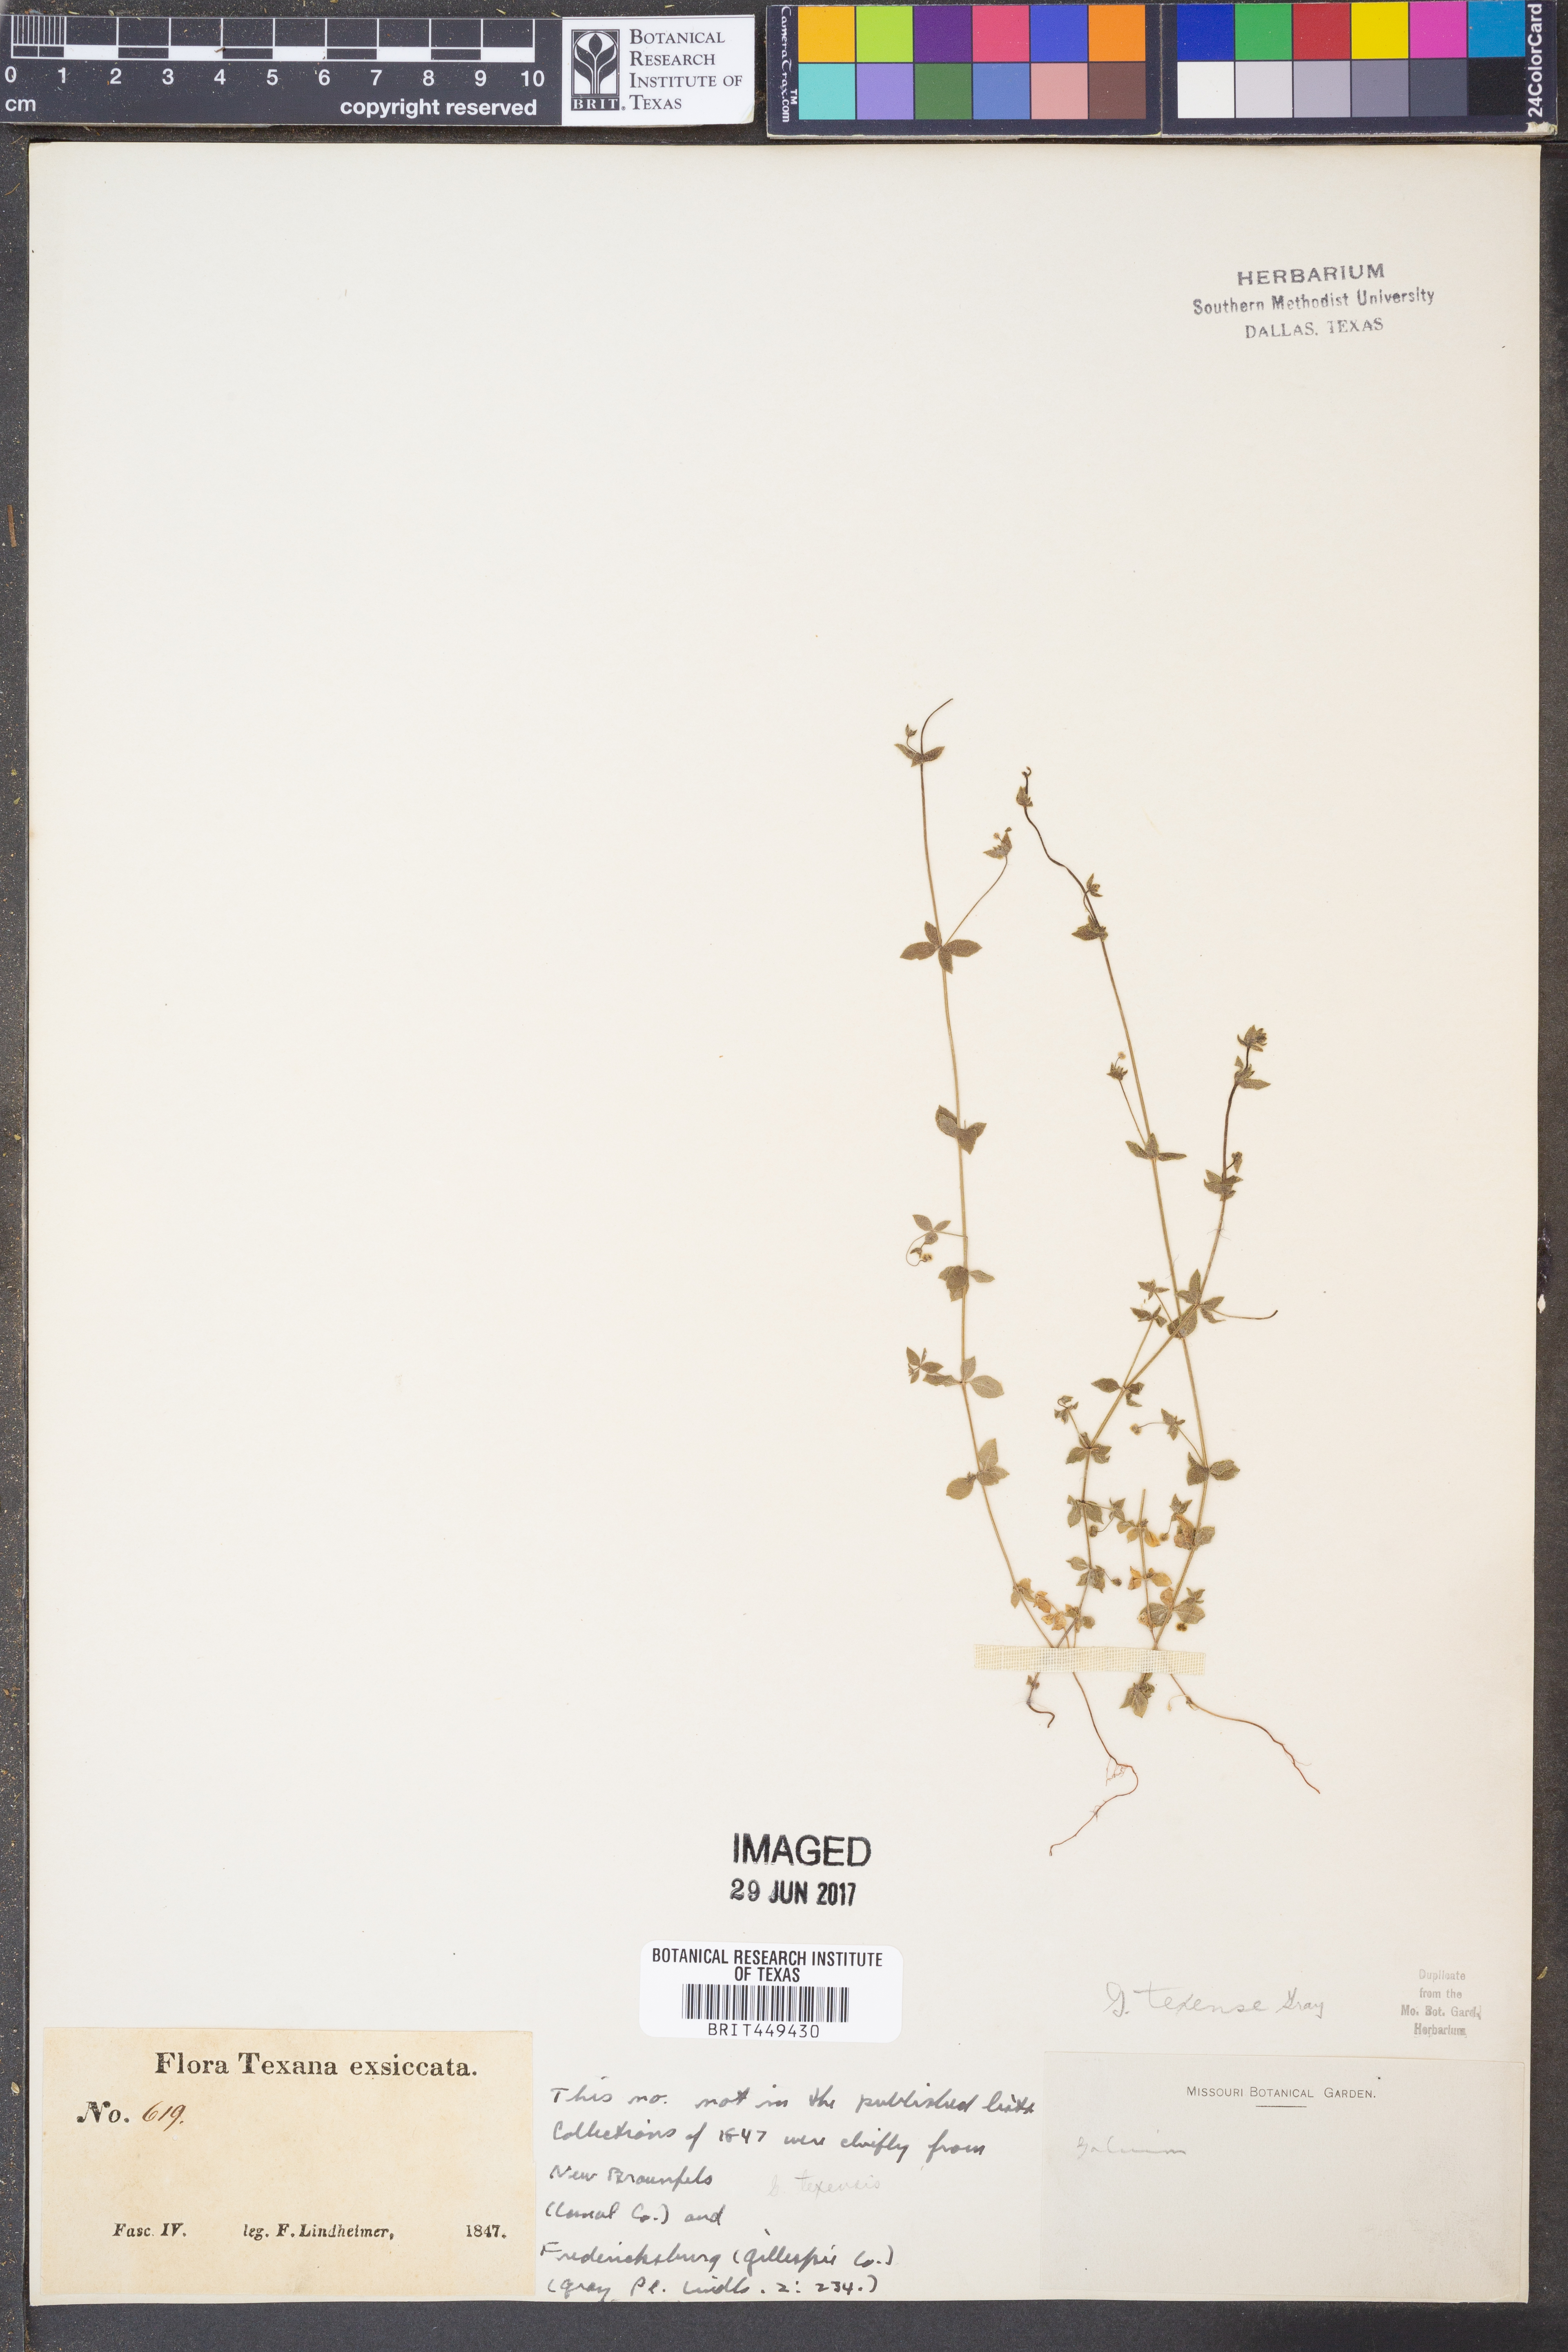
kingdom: Plantae
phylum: Tracheophyta
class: Magnoliopsida
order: Gentianales
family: Rubiaceae
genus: Galium
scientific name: Galium texense
